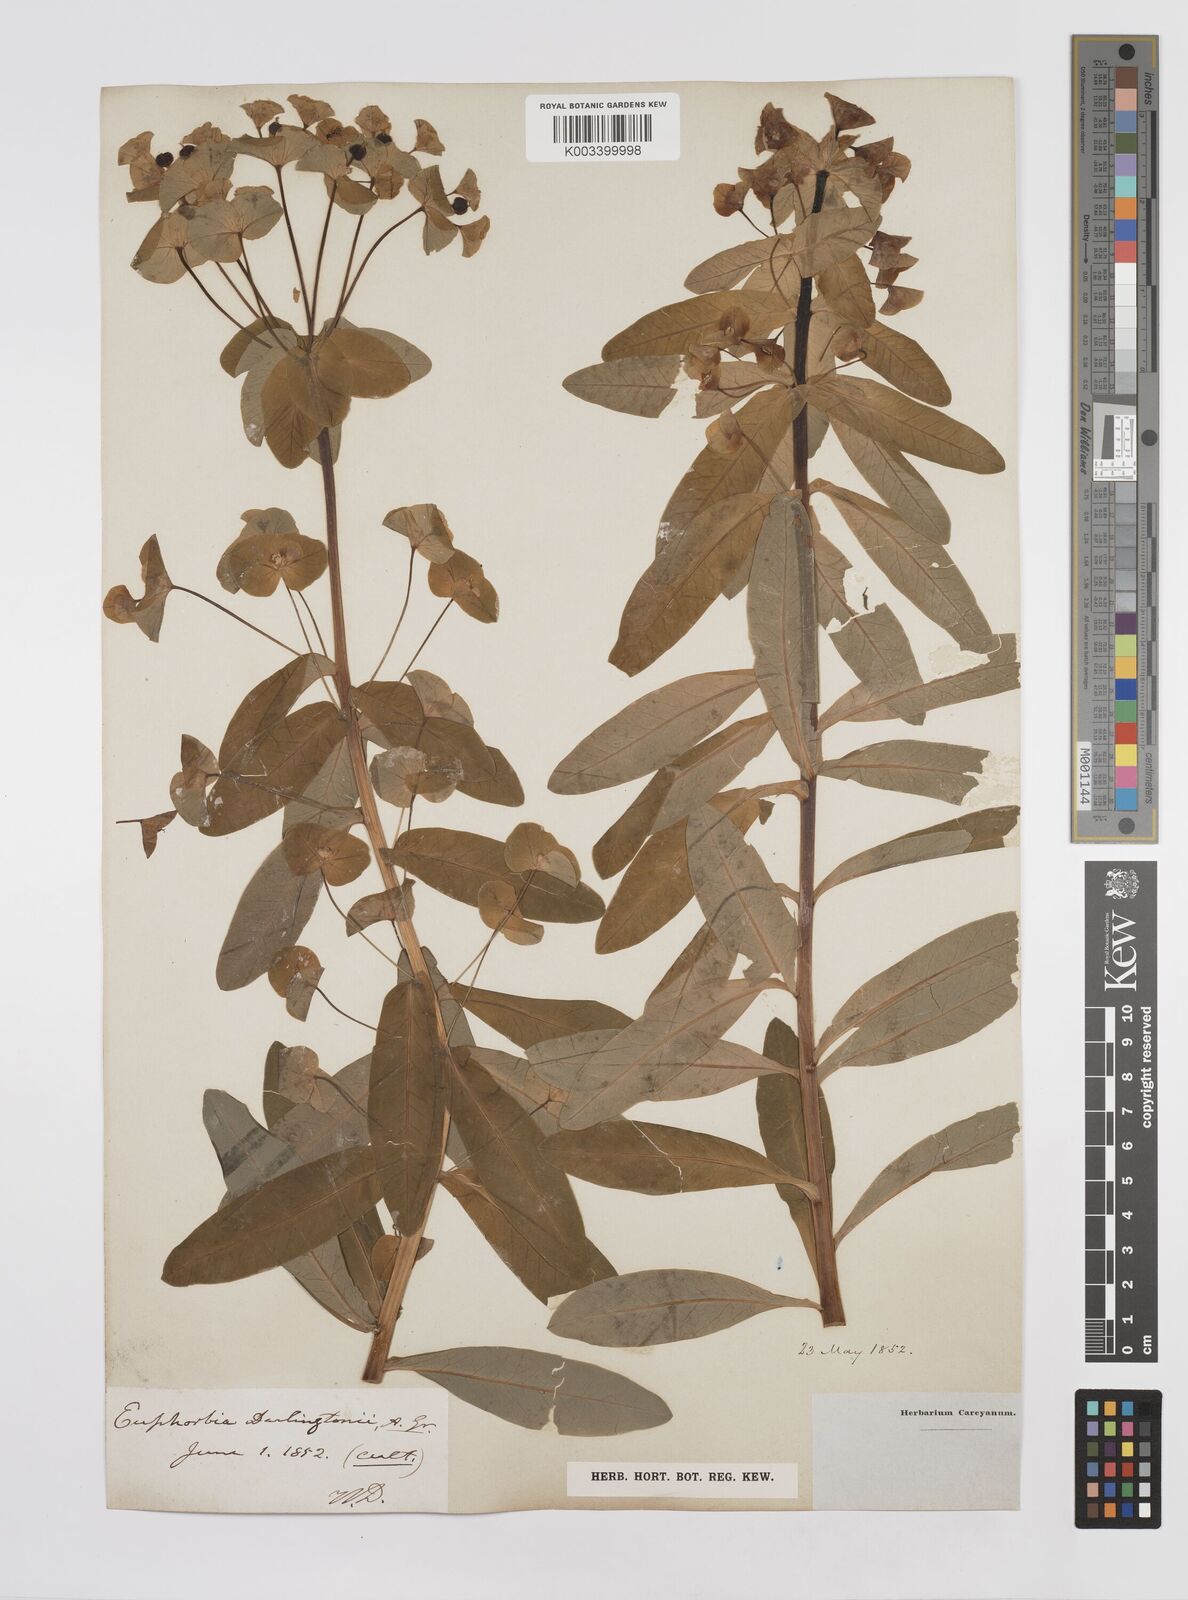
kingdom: Plantae
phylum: Tracheophyta
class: Magnoliopsida
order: Malpighiales
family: Euphorbiaceae
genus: Euphorbia
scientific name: Euphorbia purpurea
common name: Darlington's spurge
